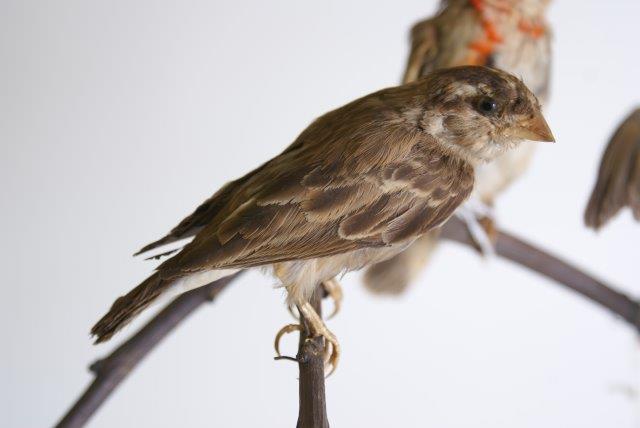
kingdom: Animalia
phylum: Chordata
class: Aves
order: Passeriformes
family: Viduidae
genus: Vidua
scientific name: Vidua
